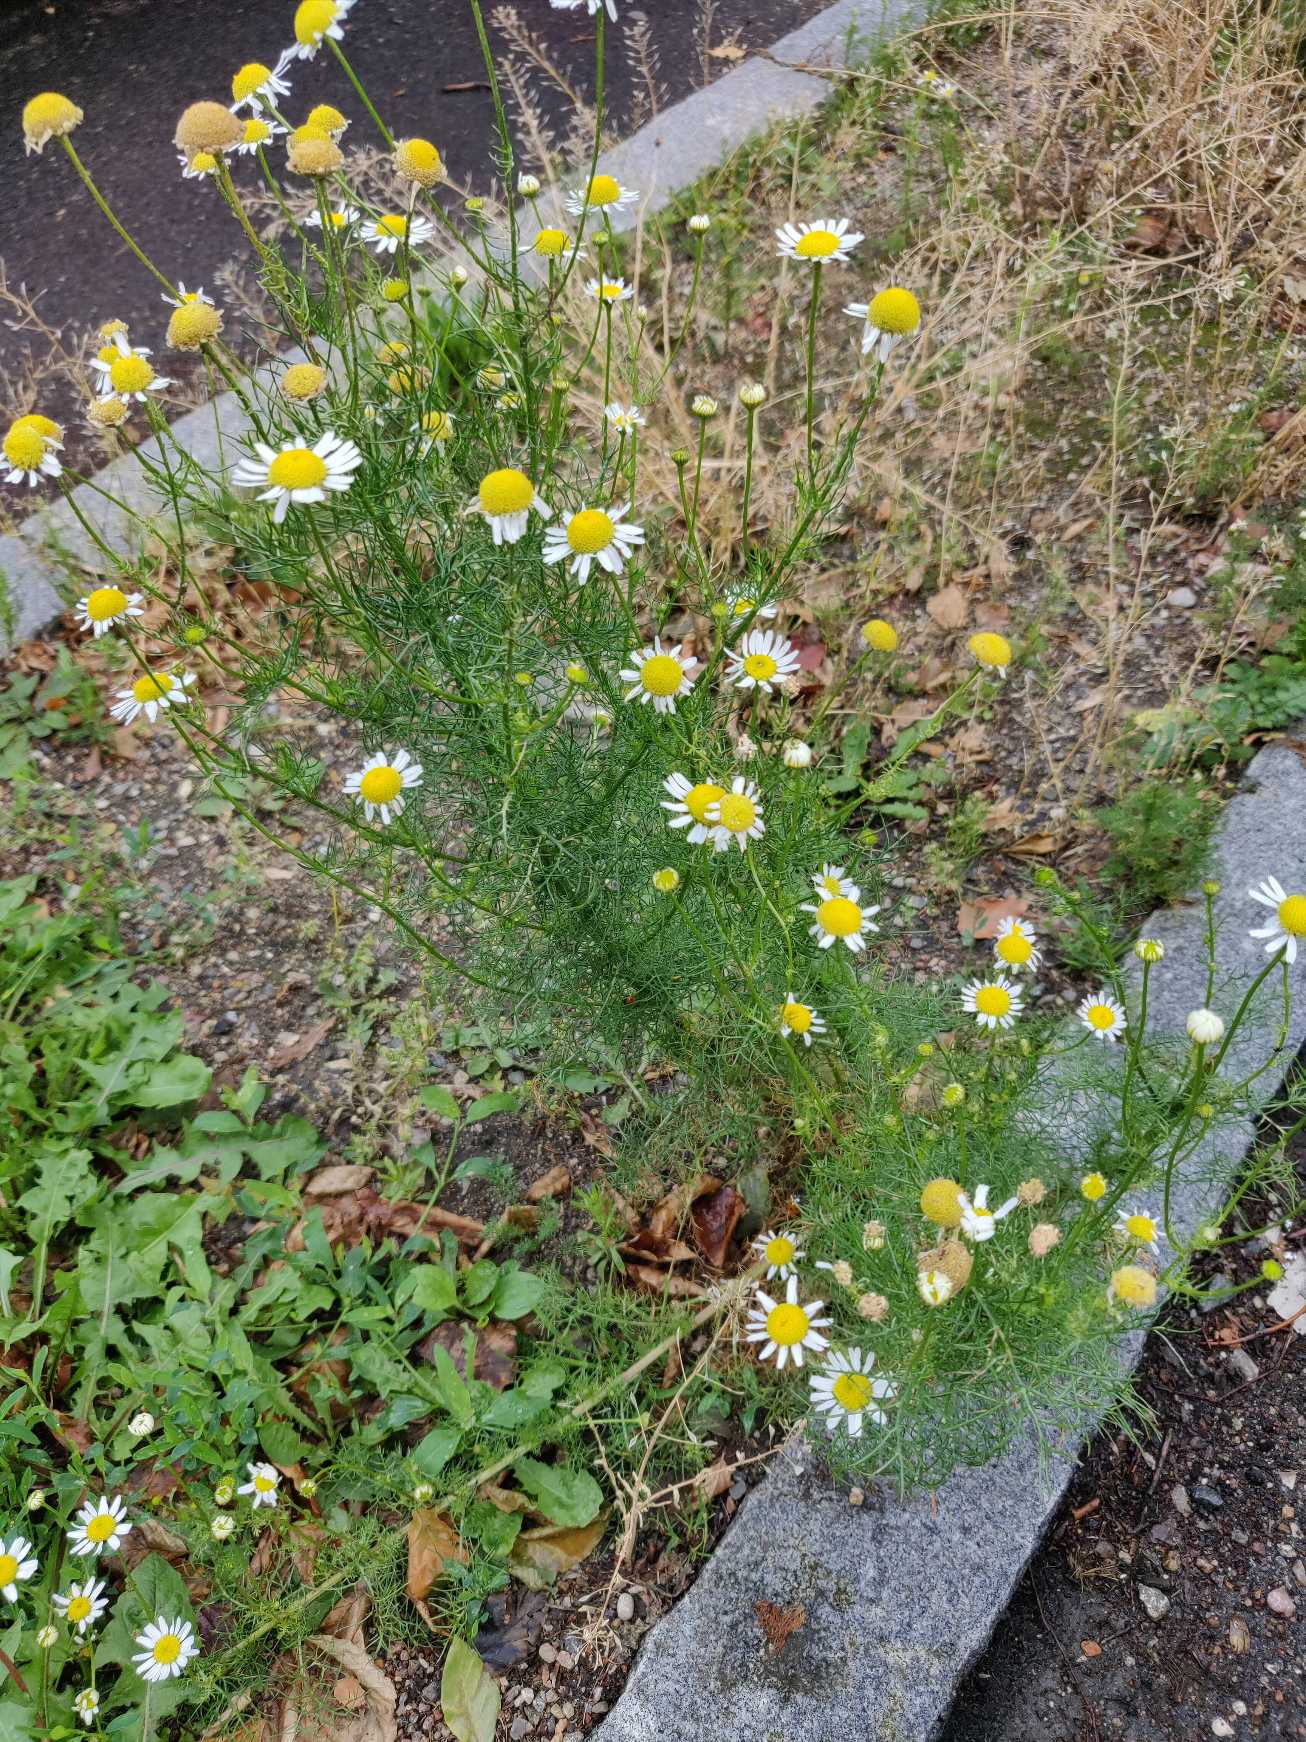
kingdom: Plantae
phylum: Tracheophyta
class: Magnoliopsida
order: Asterales
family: Asteraceae
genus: Tripleurospermum
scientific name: Tripleurospermum inodorum
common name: Lugtløs kamille
